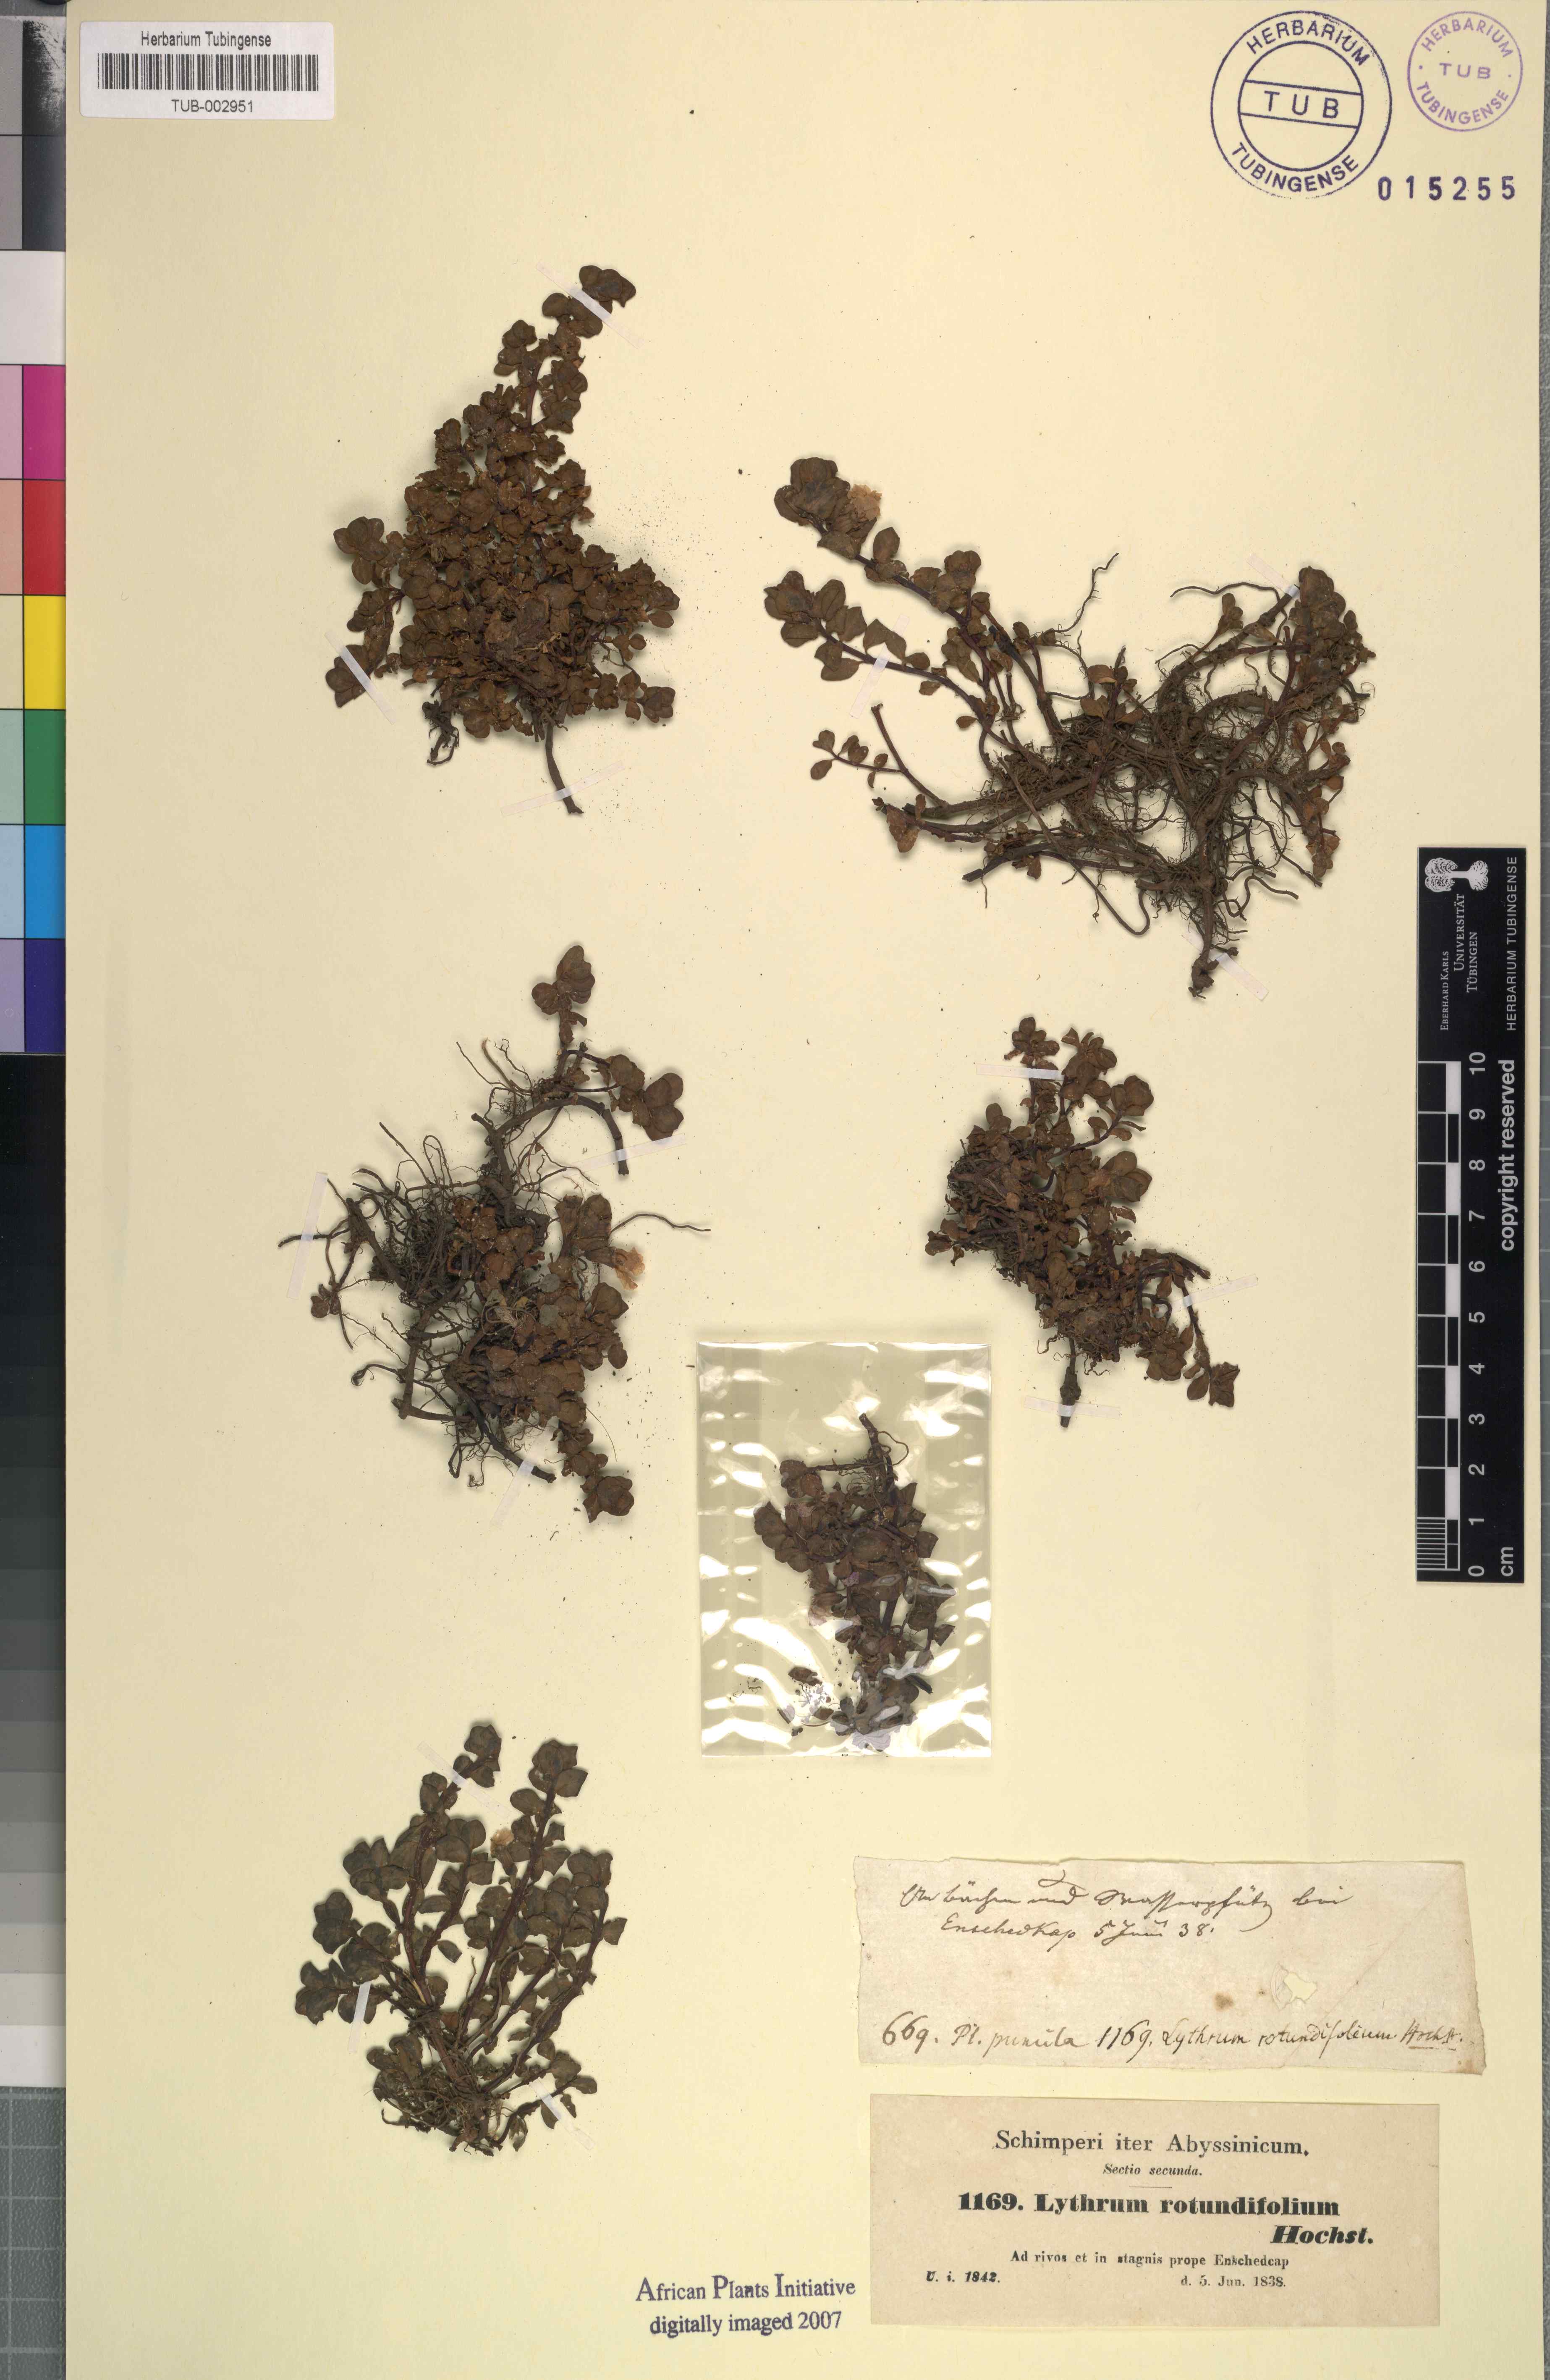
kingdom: Plantae
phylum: Tracheophyta
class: Magnoliopsida
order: Myrtales
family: Lythraceae
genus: Lythrum
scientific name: Lythrum rotundifolium
